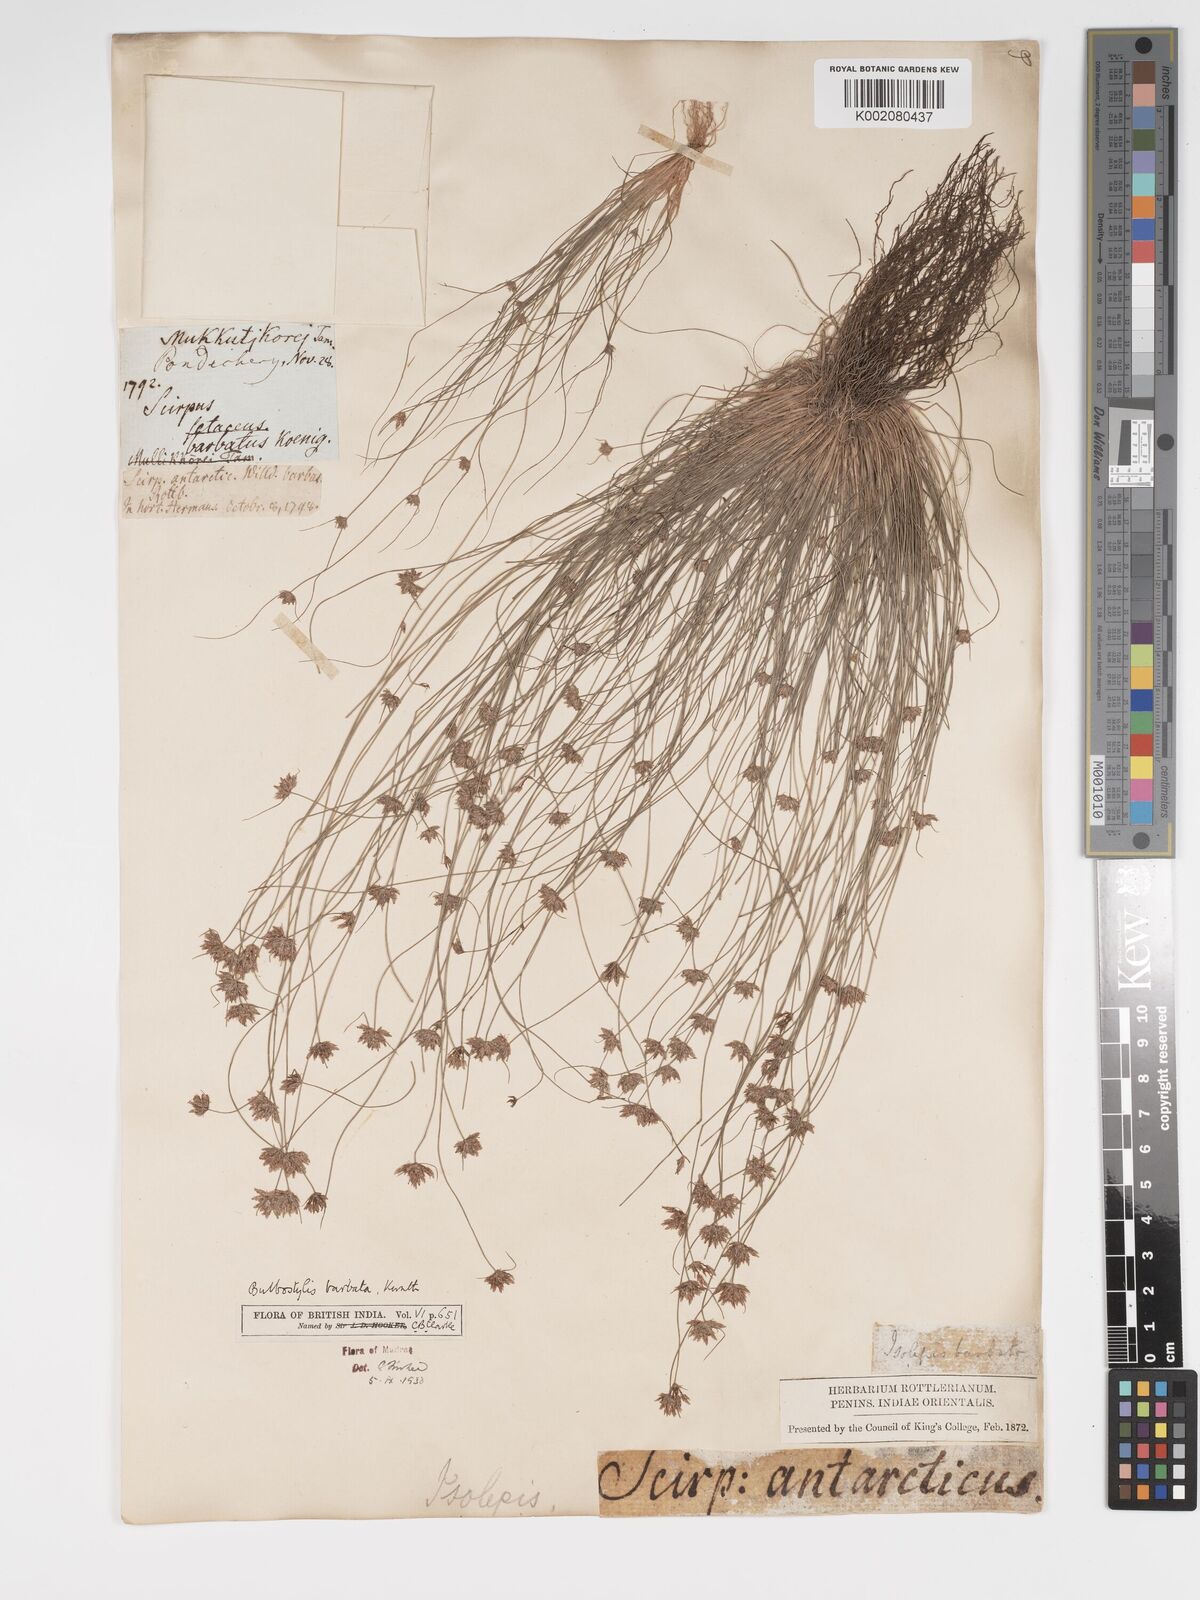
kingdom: Plantae
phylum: Tracheophyta
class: Liliopsida
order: Poales
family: Cyperaceae
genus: Bulbostylis
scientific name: Bulbostylis barbata
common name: Watergrass
